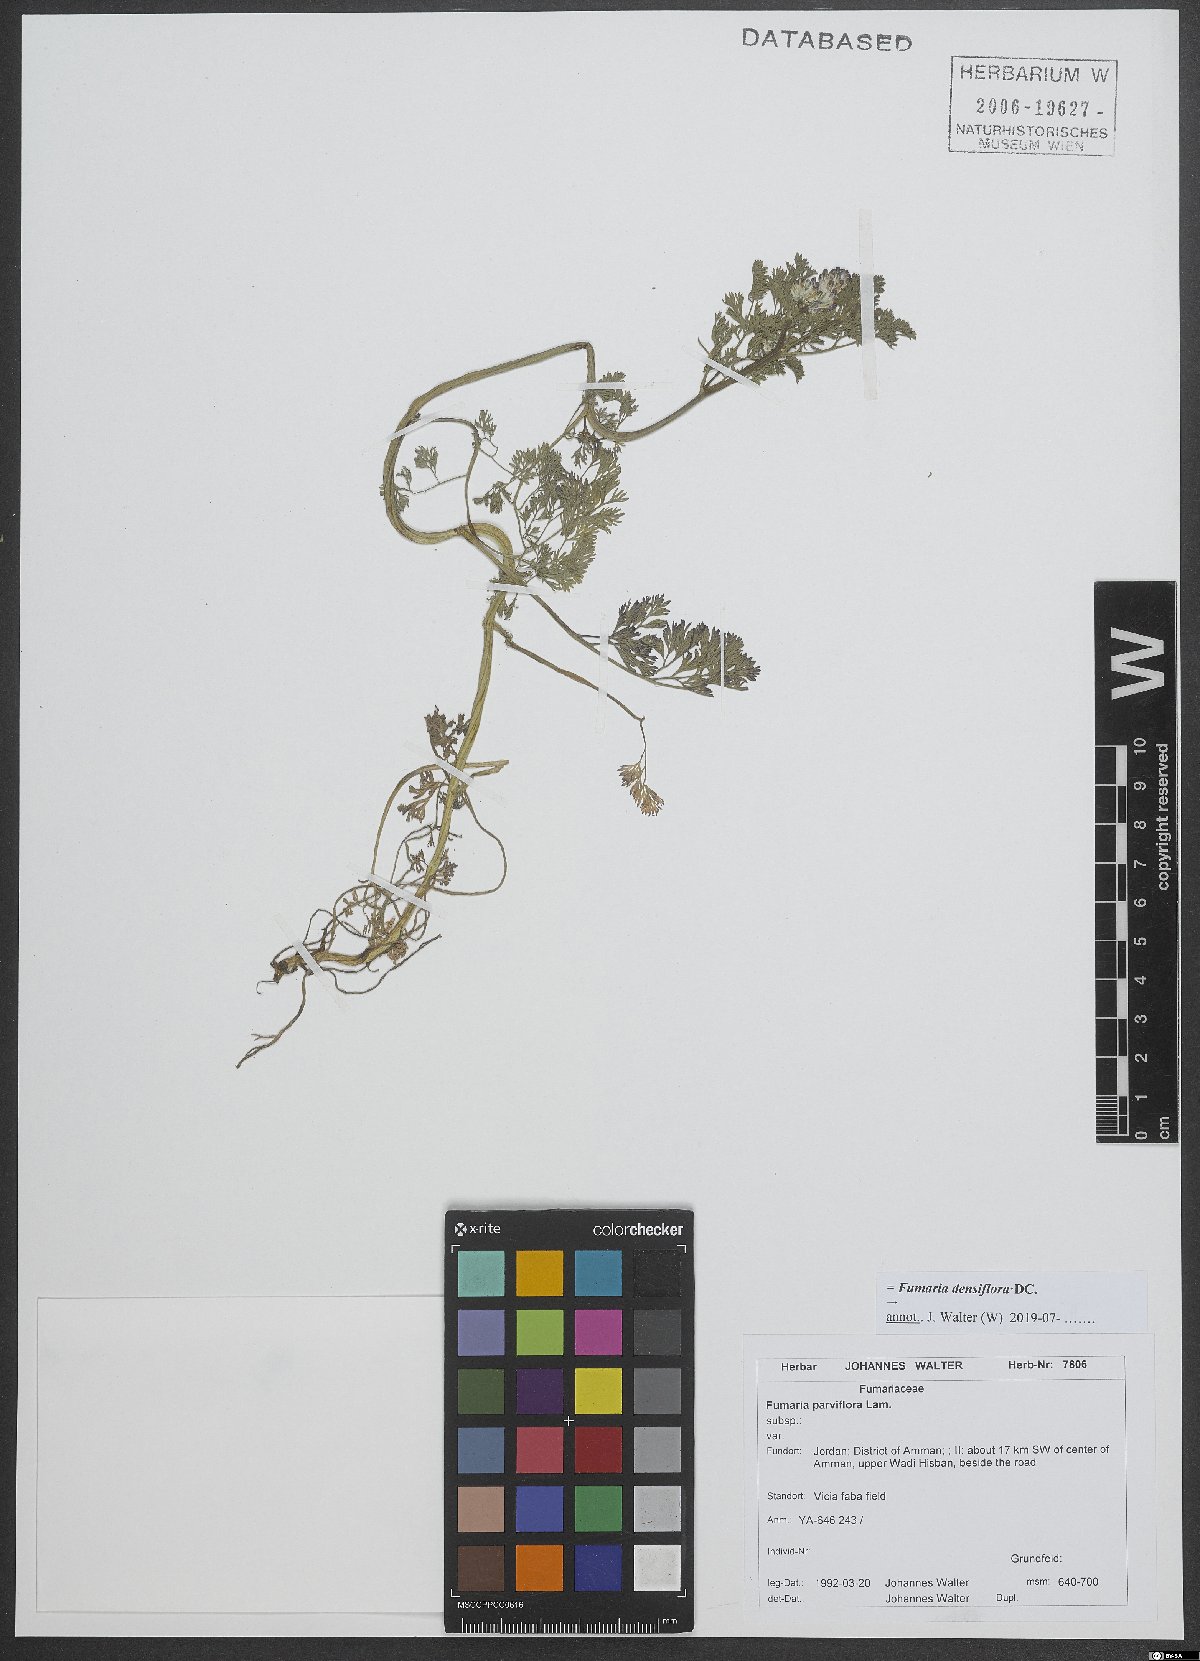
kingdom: Plantae
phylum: Tracheophyta
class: Magnoliopsida
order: Ranunculales
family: Papaveraceae
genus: Fumaria
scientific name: Fumaria densiflora
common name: Dense-flowered fumitory
